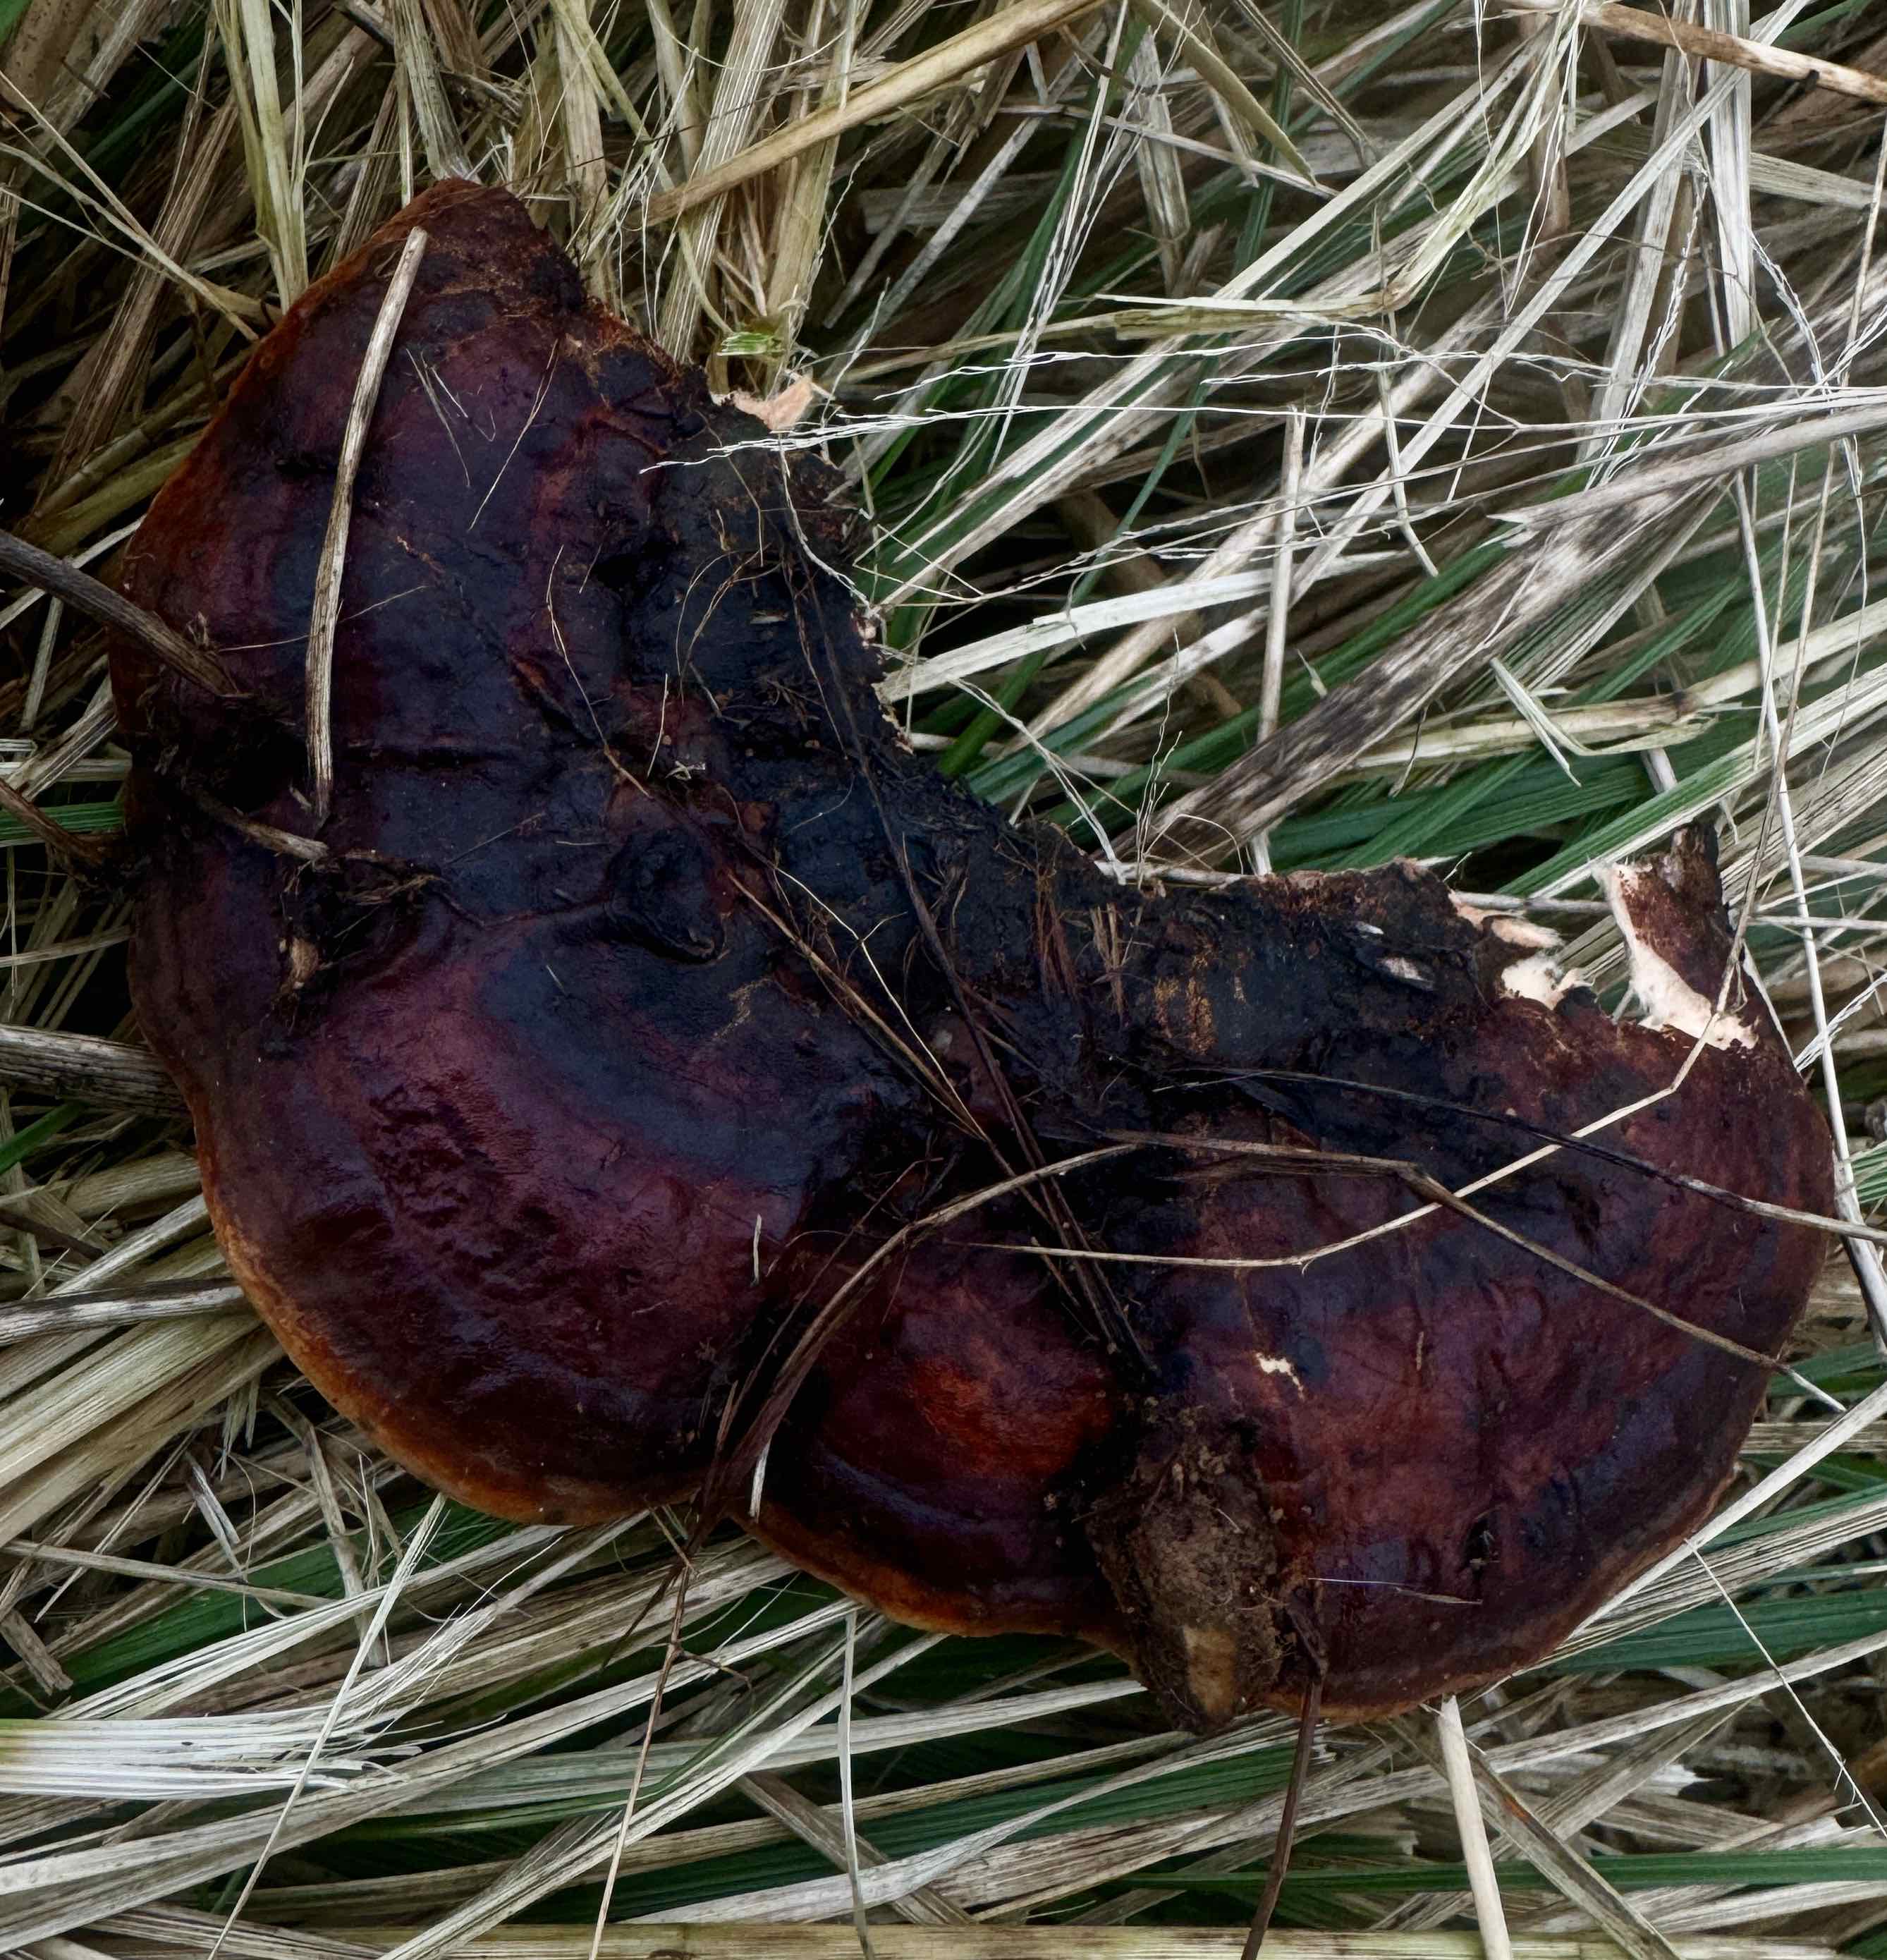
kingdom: Fungi
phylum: Basidiomycota
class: Agaricomycetes
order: Polyporales
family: Fomitopsidaceae
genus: Fomitopsis
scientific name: Fomitopsis pinicola
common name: randbæltet hovporesvamp
